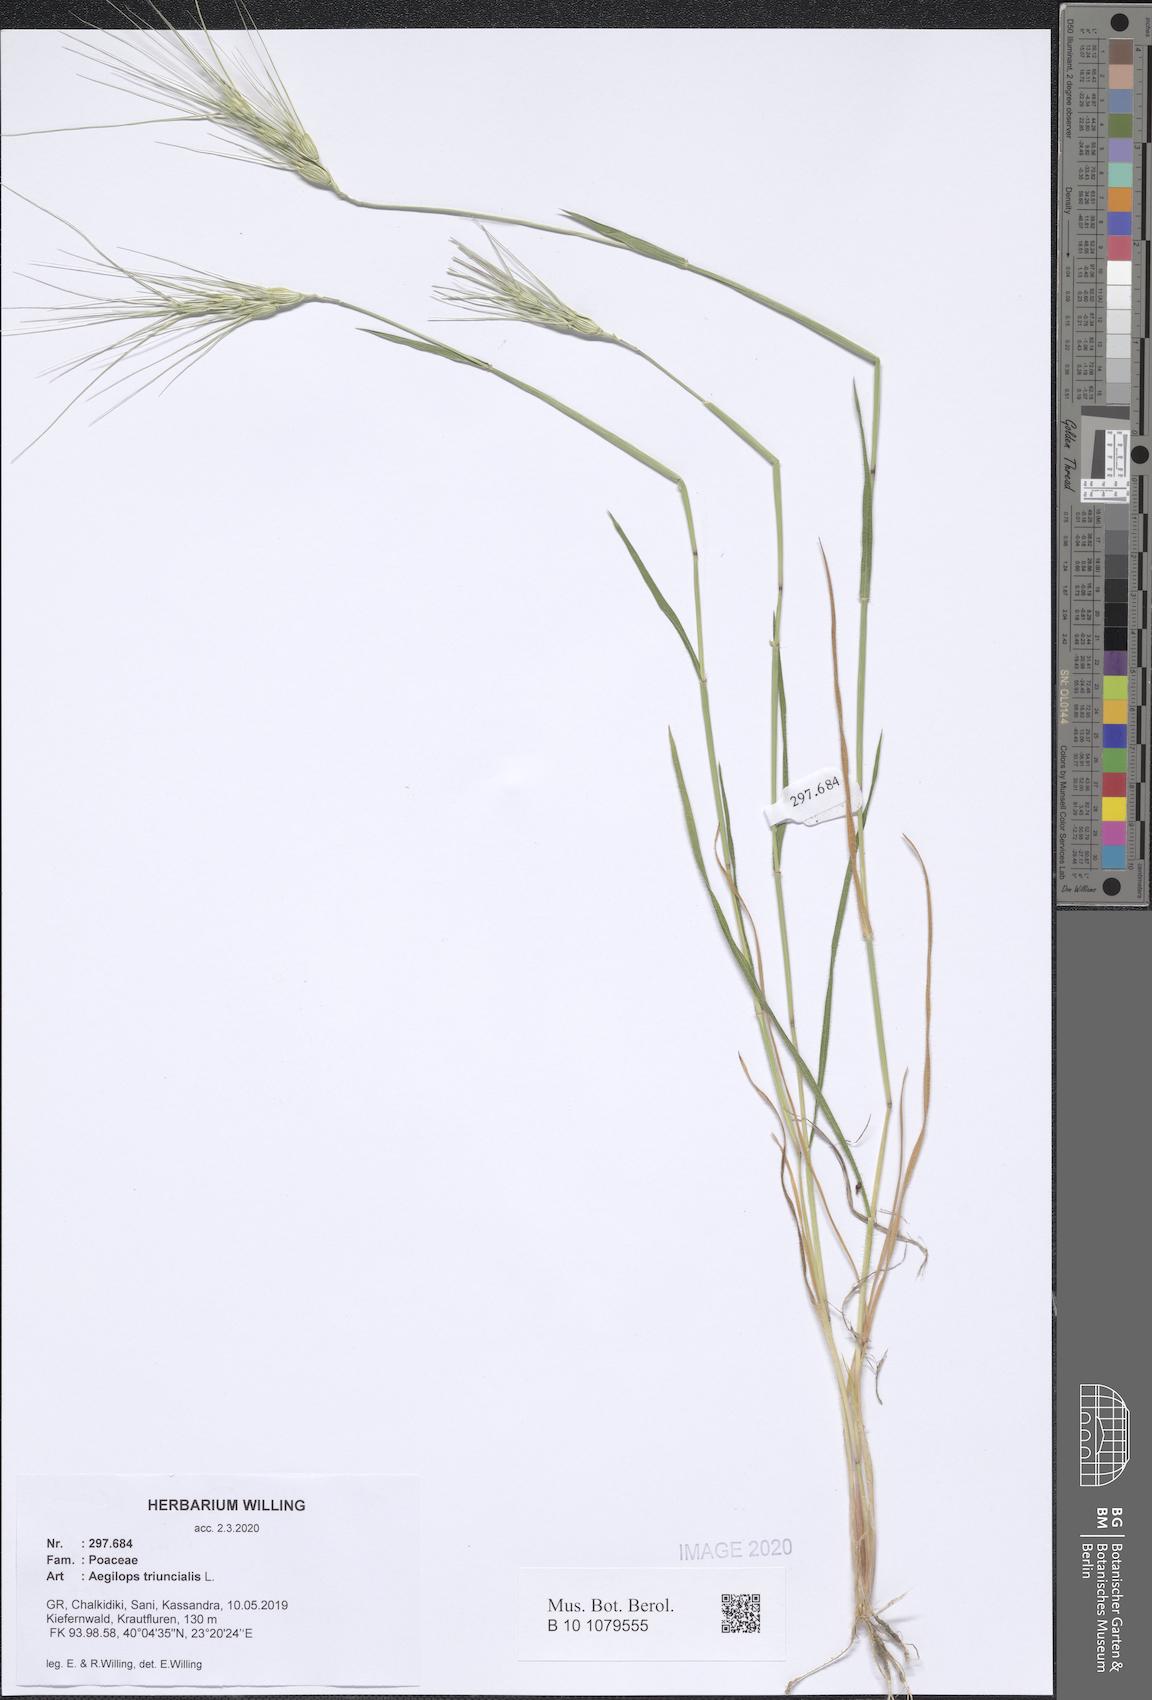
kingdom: Plantae
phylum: Tracheophyta
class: Liliopsida
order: Poales
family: Poaceae
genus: Aegilops
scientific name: Aegilops triuncialis
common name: Barb goat grass
